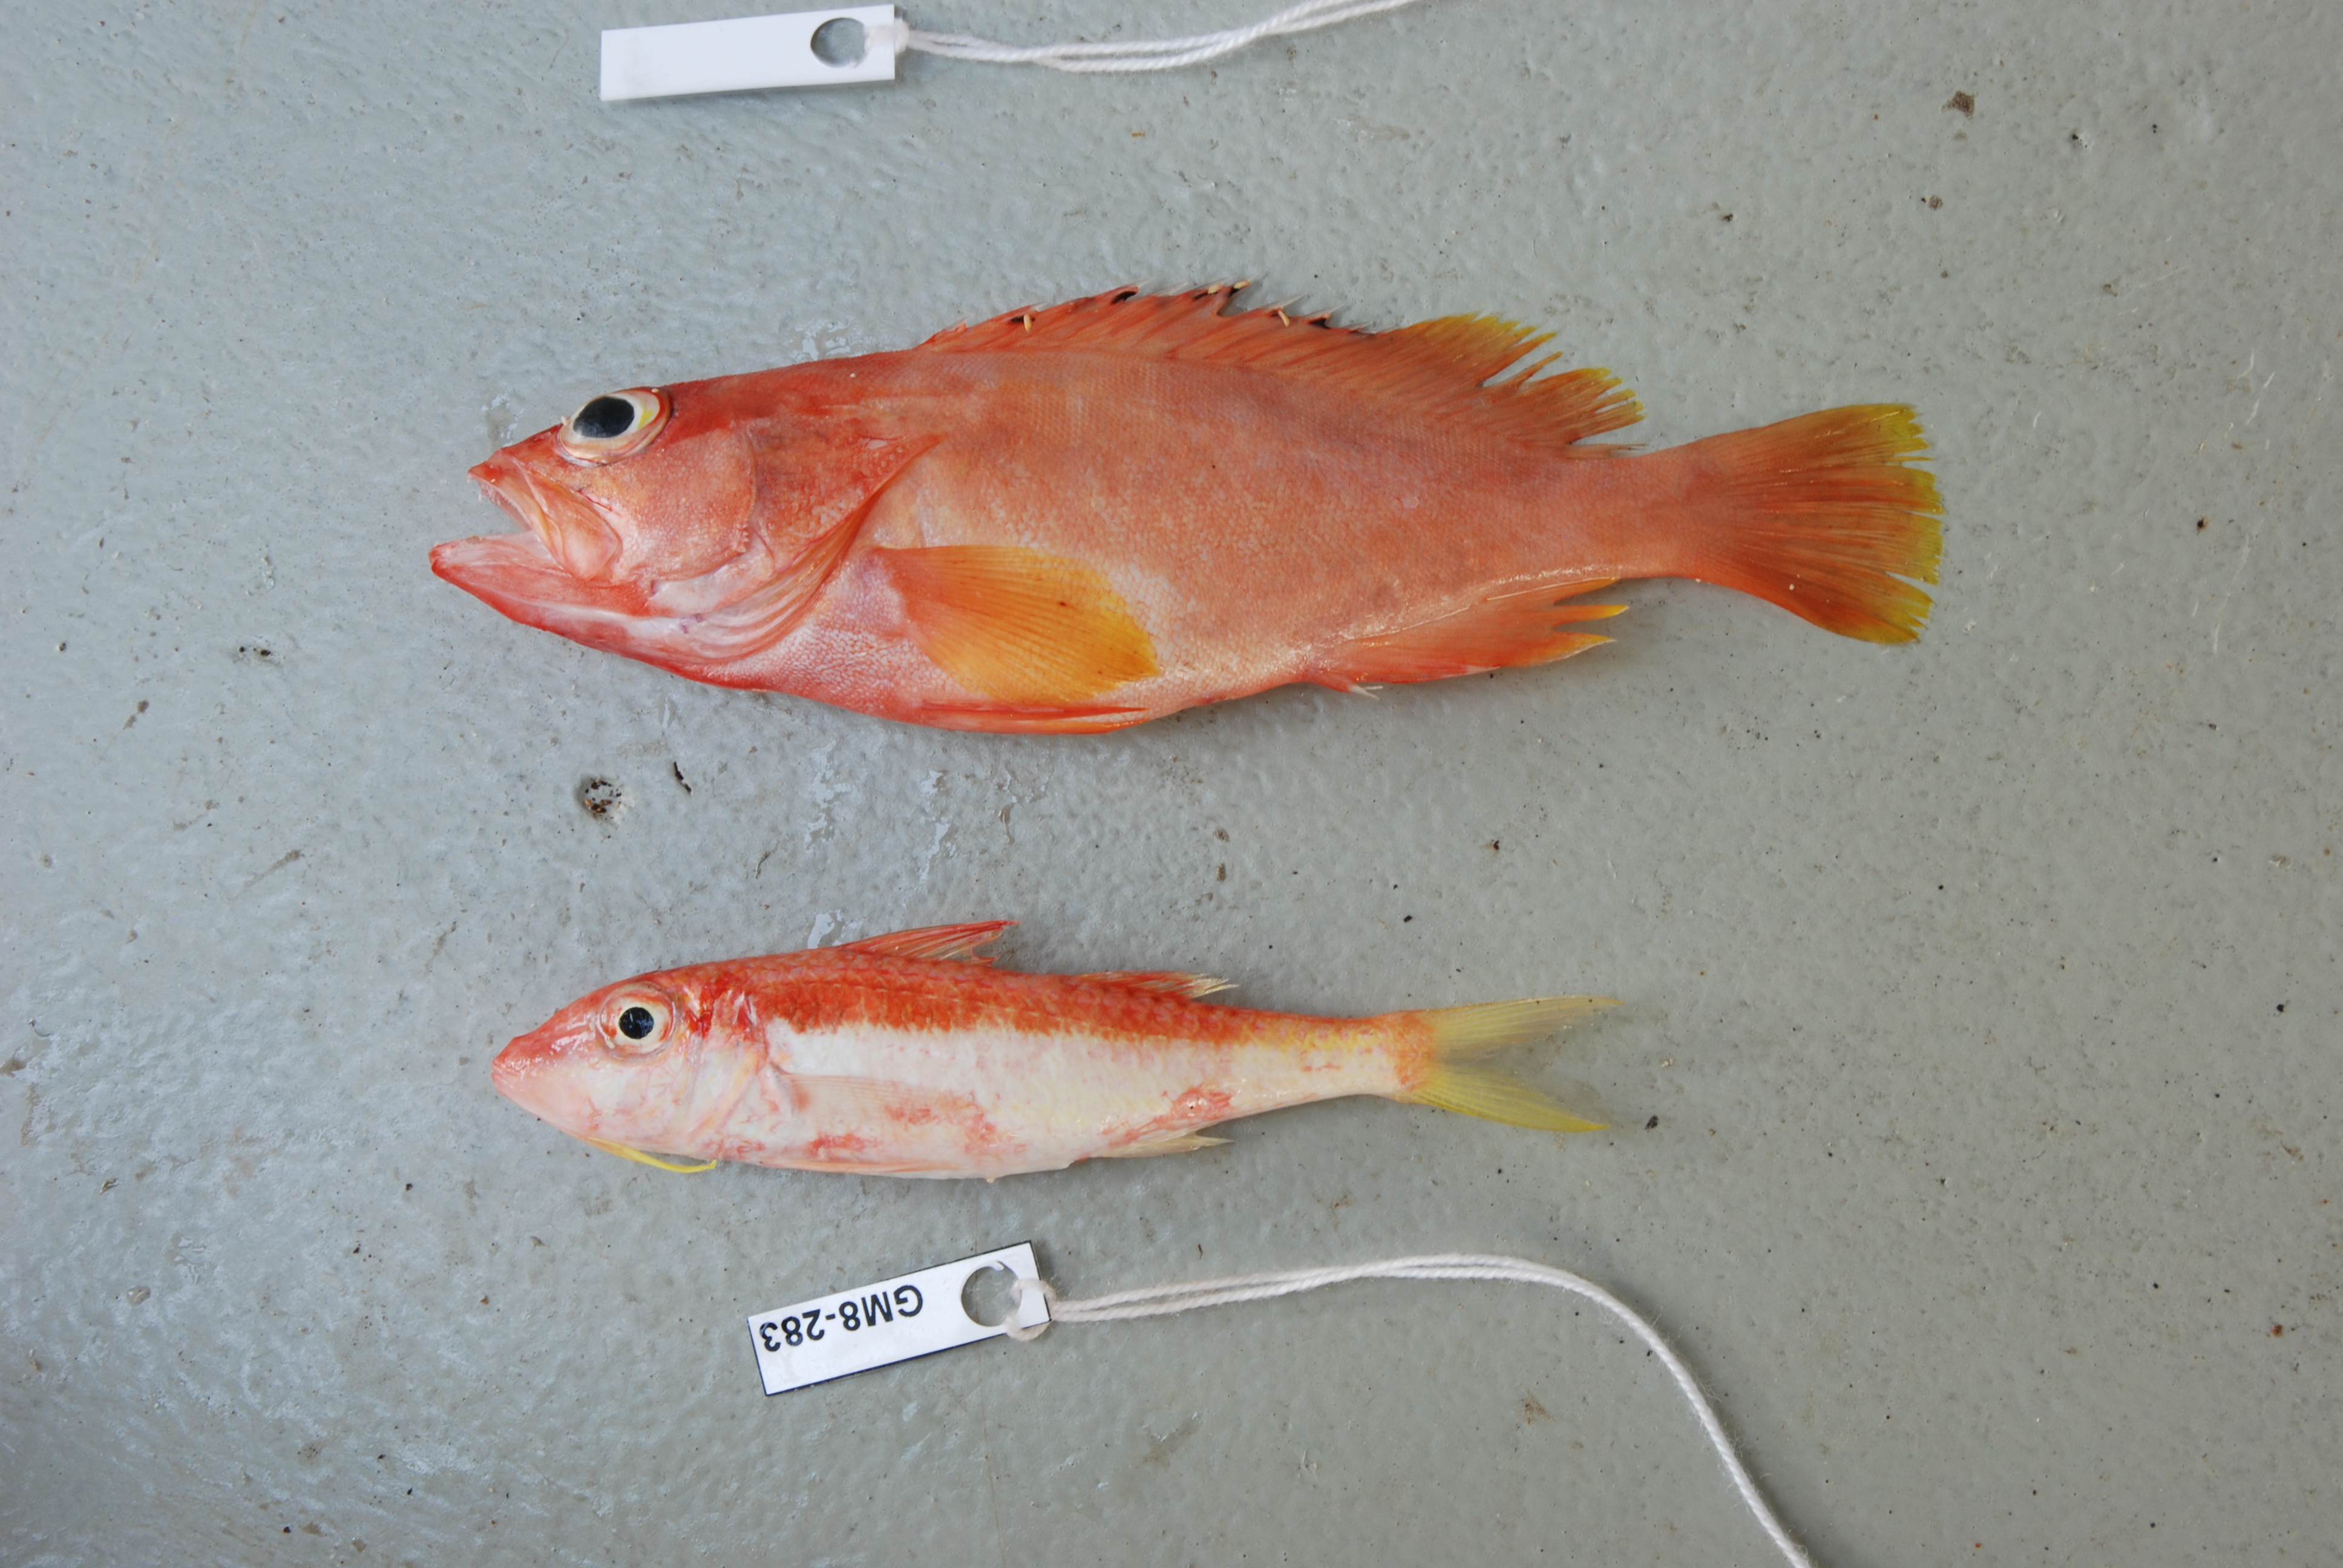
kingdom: Animalia
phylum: Chordata
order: Perciformes
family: Serranidae
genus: Epinephelus
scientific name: Epinephelus fasciatus
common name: Blacktip grouper
